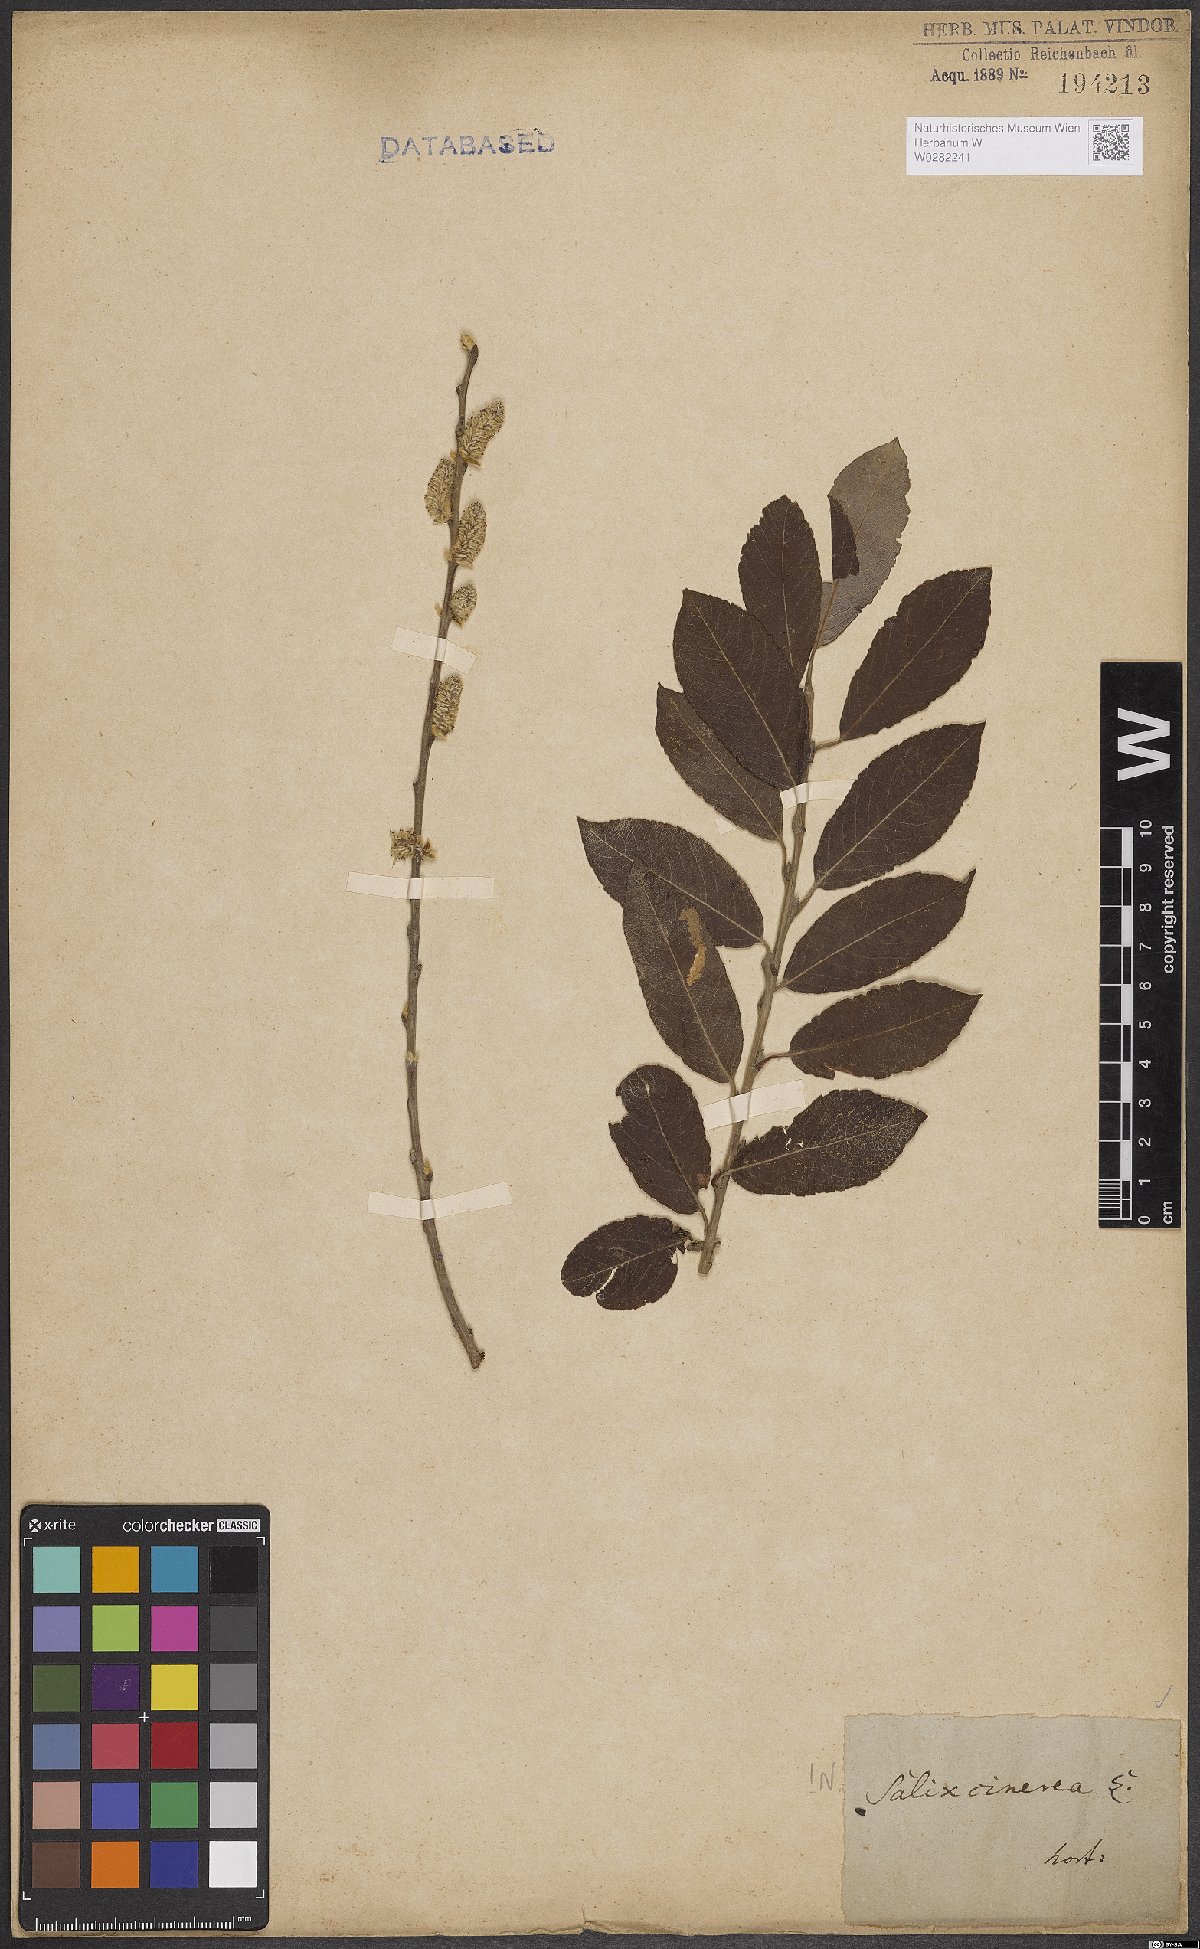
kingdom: Plantae
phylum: Tracheophyta
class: Magnoliopsida
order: Malpighiales
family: Salicaceae
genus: Salix
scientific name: Salix cinerea
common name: Common sallow
